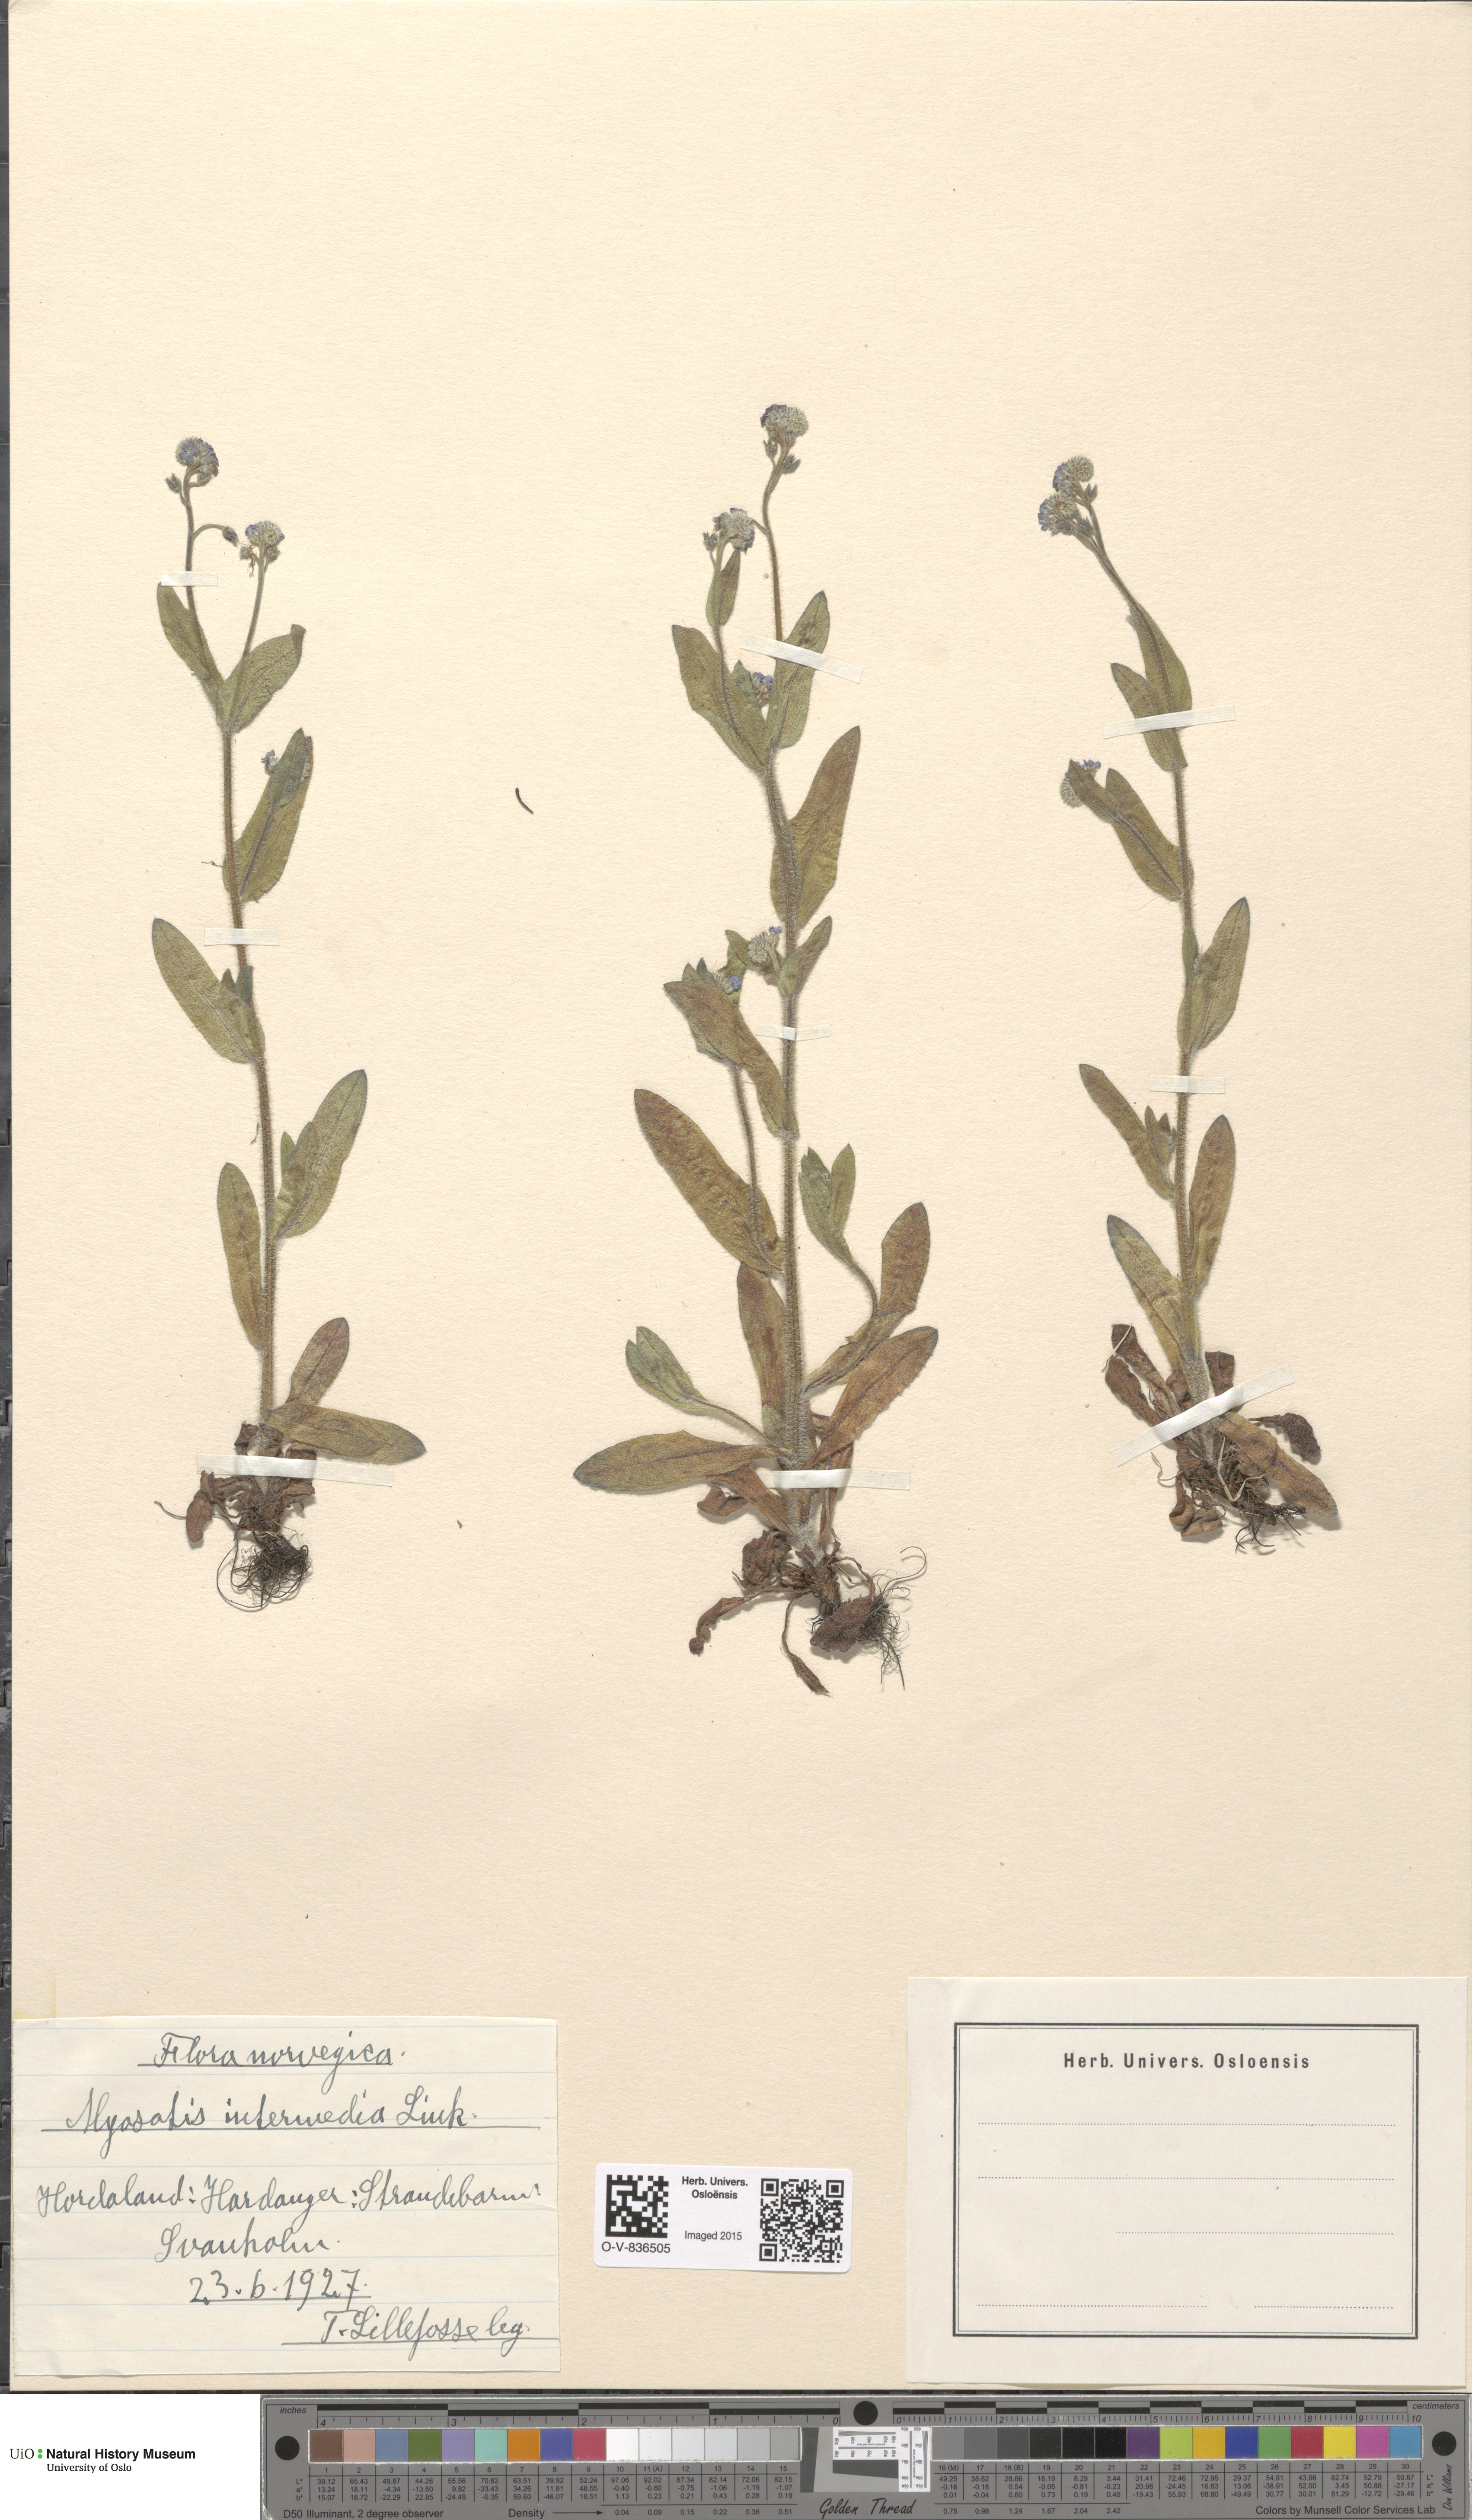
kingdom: Plantae
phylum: Tracheophyta
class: Magnoliopsida
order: Boraginales
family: Boraginaceae
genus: Myosotis
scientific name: Myosotis arvensis
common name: Field forget-me-not
